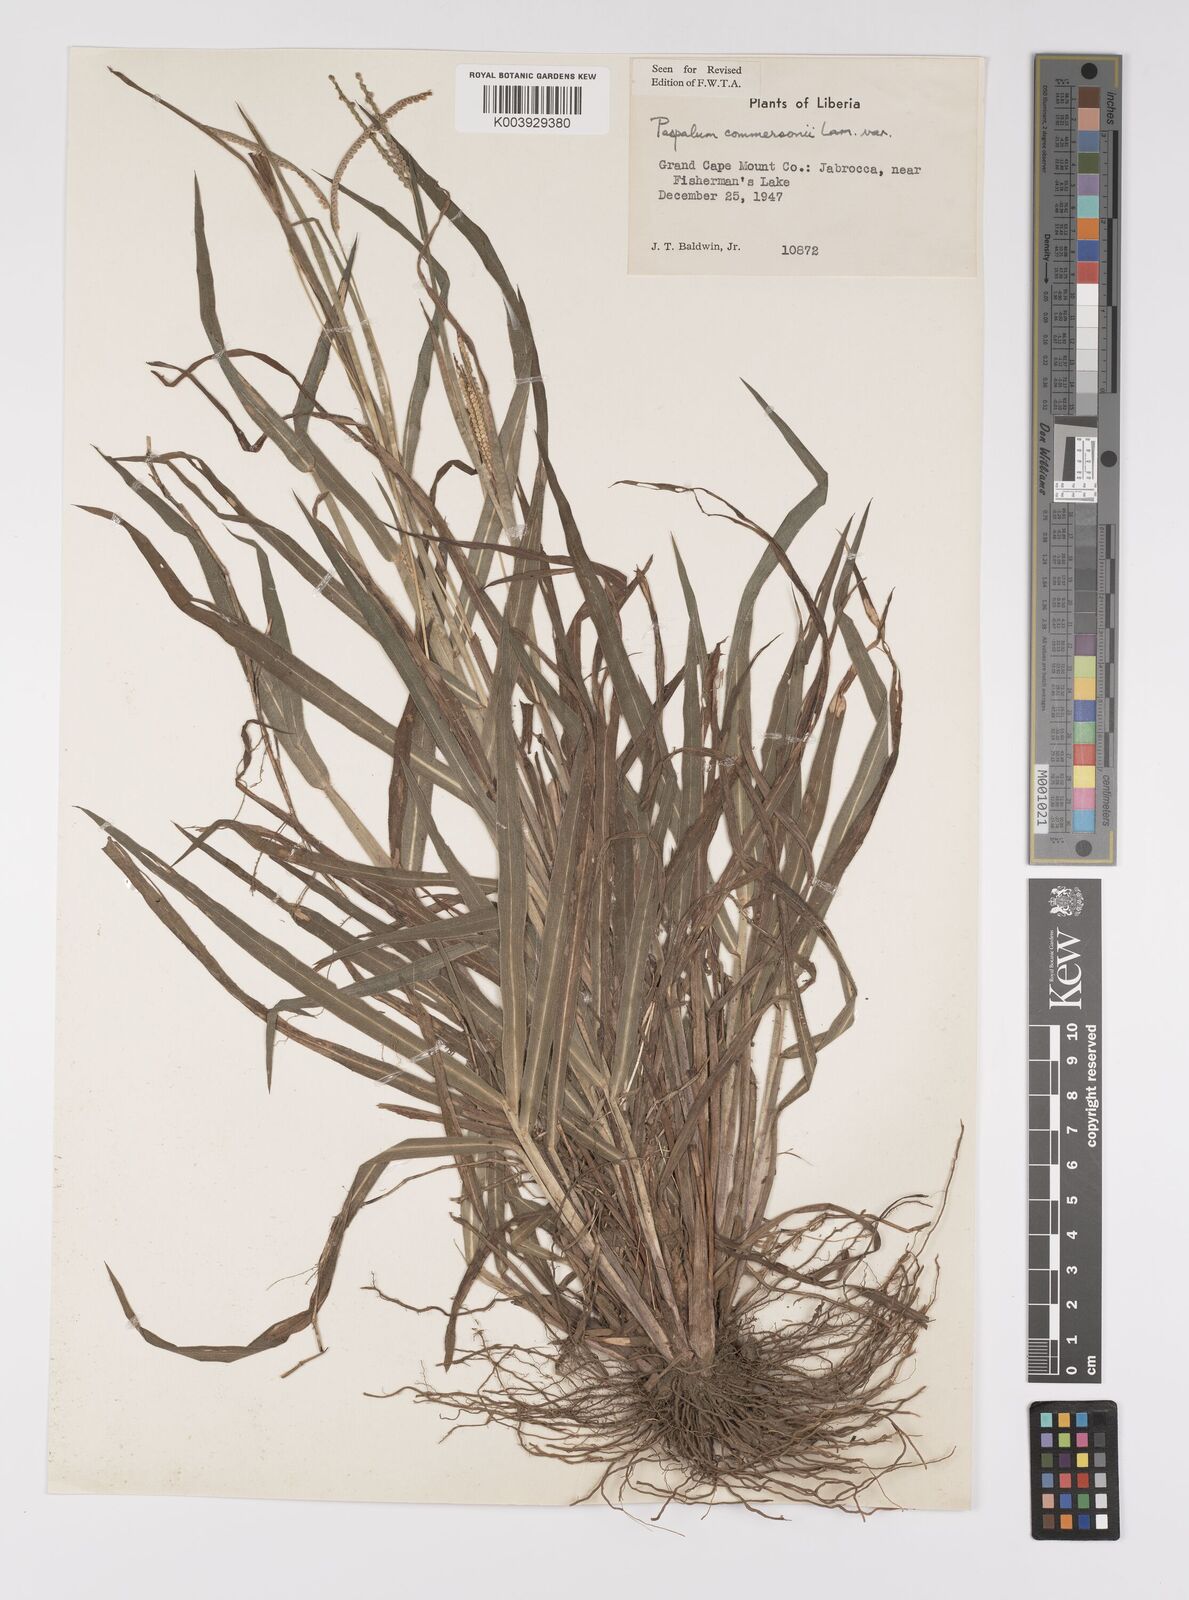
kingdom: Plantae
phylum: Tracheophyta
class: Liliopsida
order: Poales
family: Poaceae
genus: Paspalum
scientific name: Paspalum scrobiculatum
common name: Kodo millet
